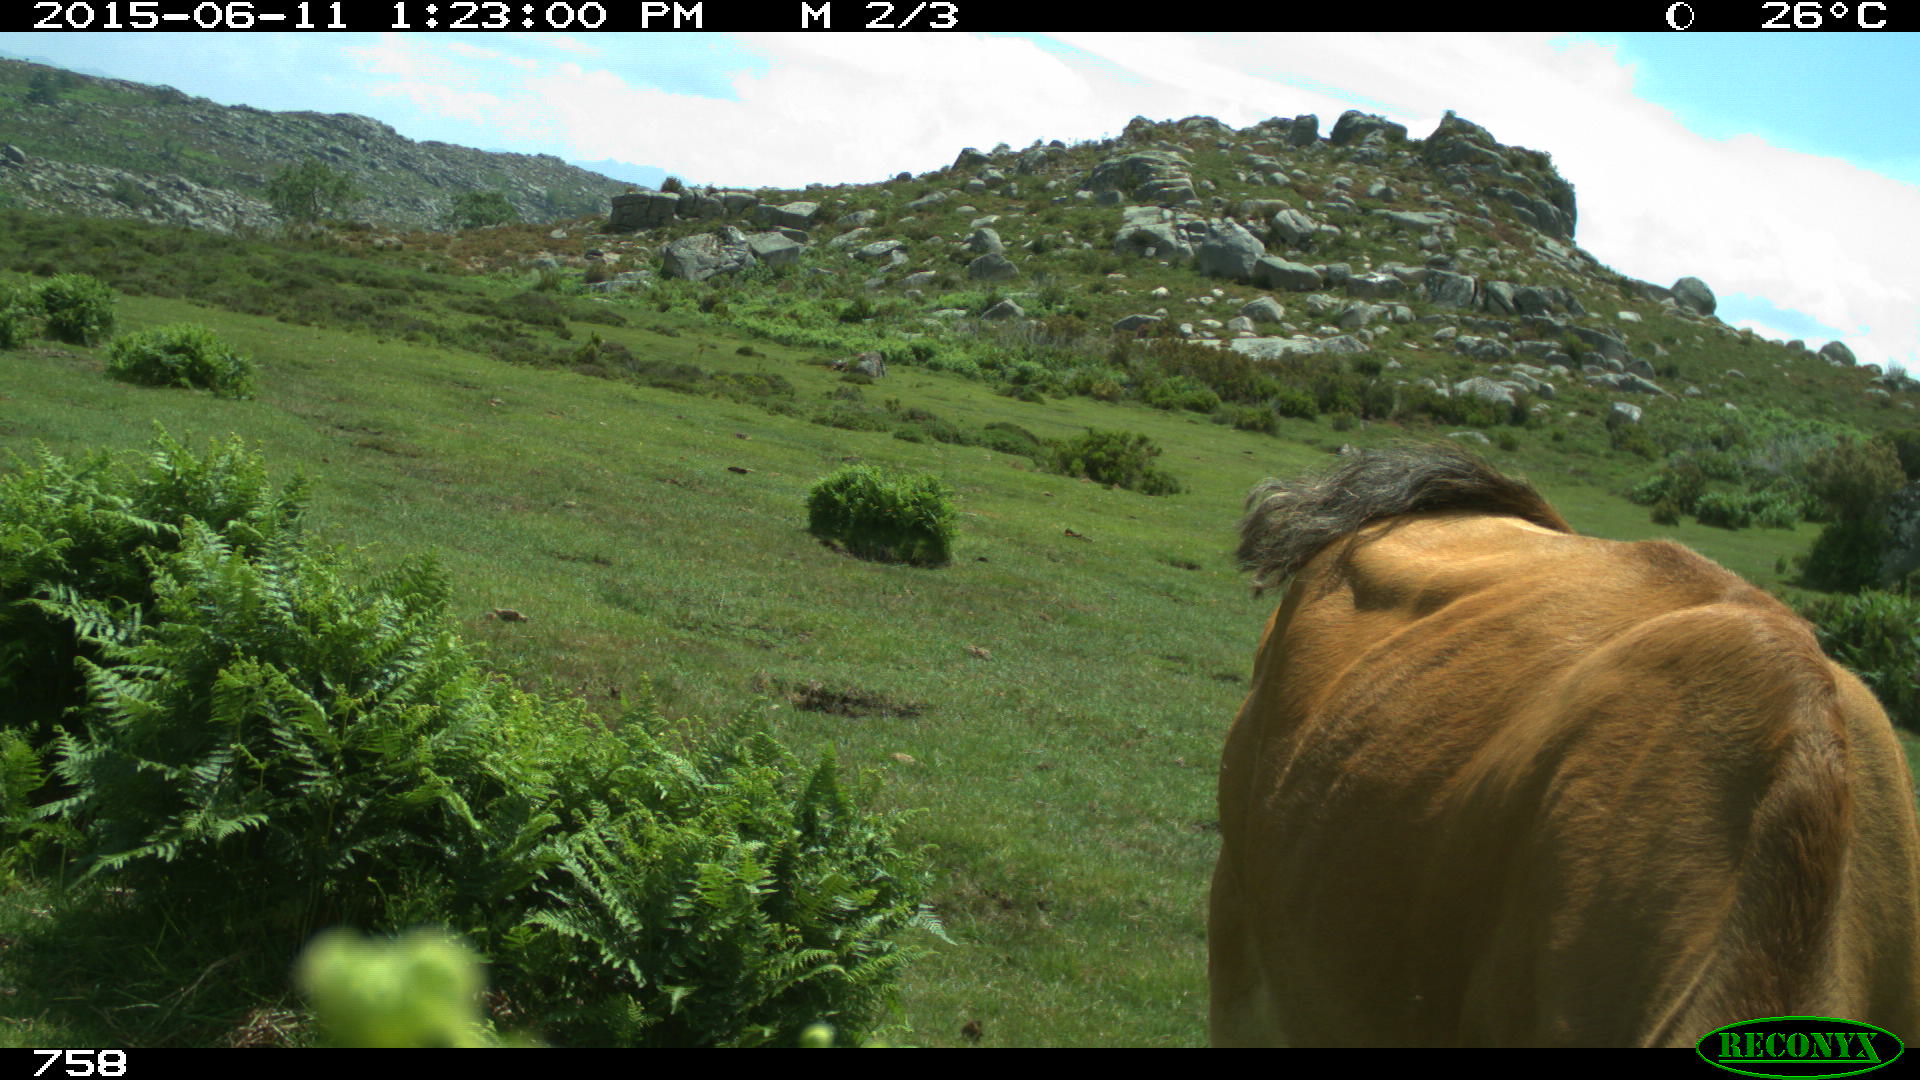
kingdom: Animalia
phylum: Chordata
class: Mammalia
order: Artiodactyla
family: Bovidae
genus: Bos
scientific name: Bos taurus
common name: Domesticated cattle
